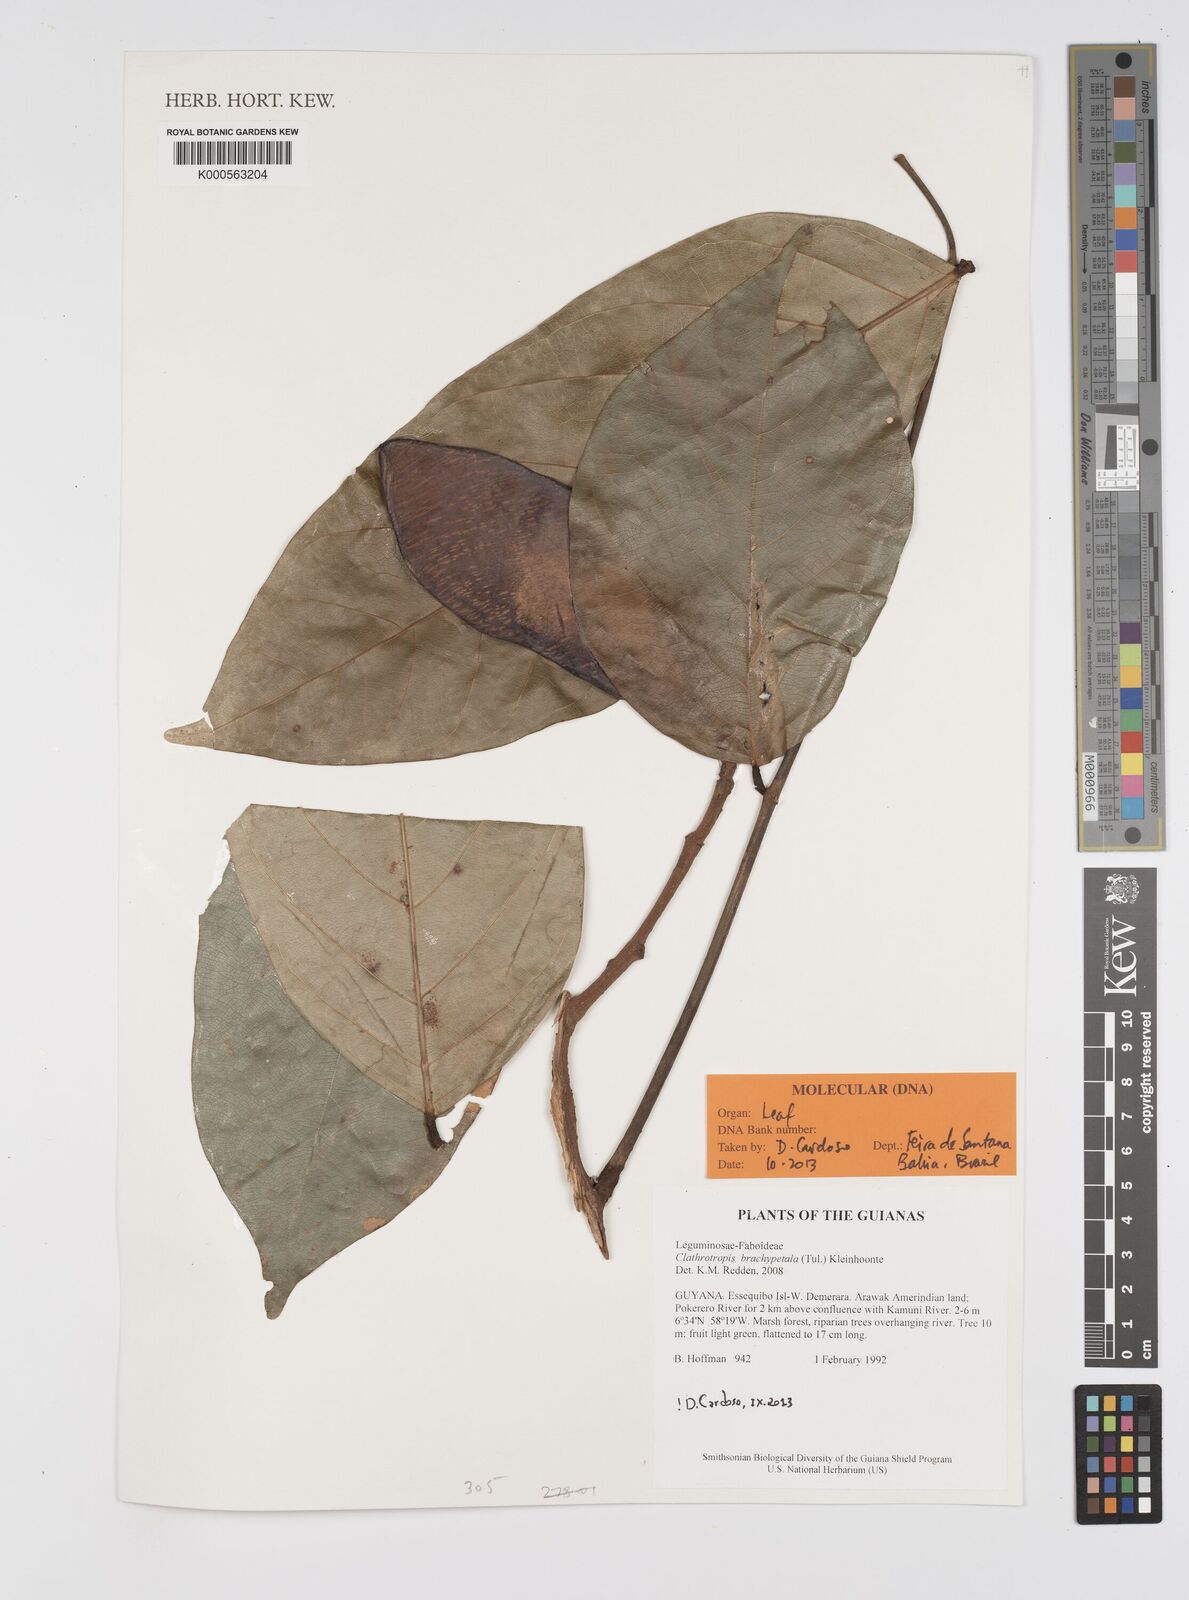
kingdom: Plantae
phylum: Tracheophyta
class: Magnoliopsida
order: Fabales
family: Fabaceae
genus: Clathrotropis
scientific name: Clathrotropis brachypetala
